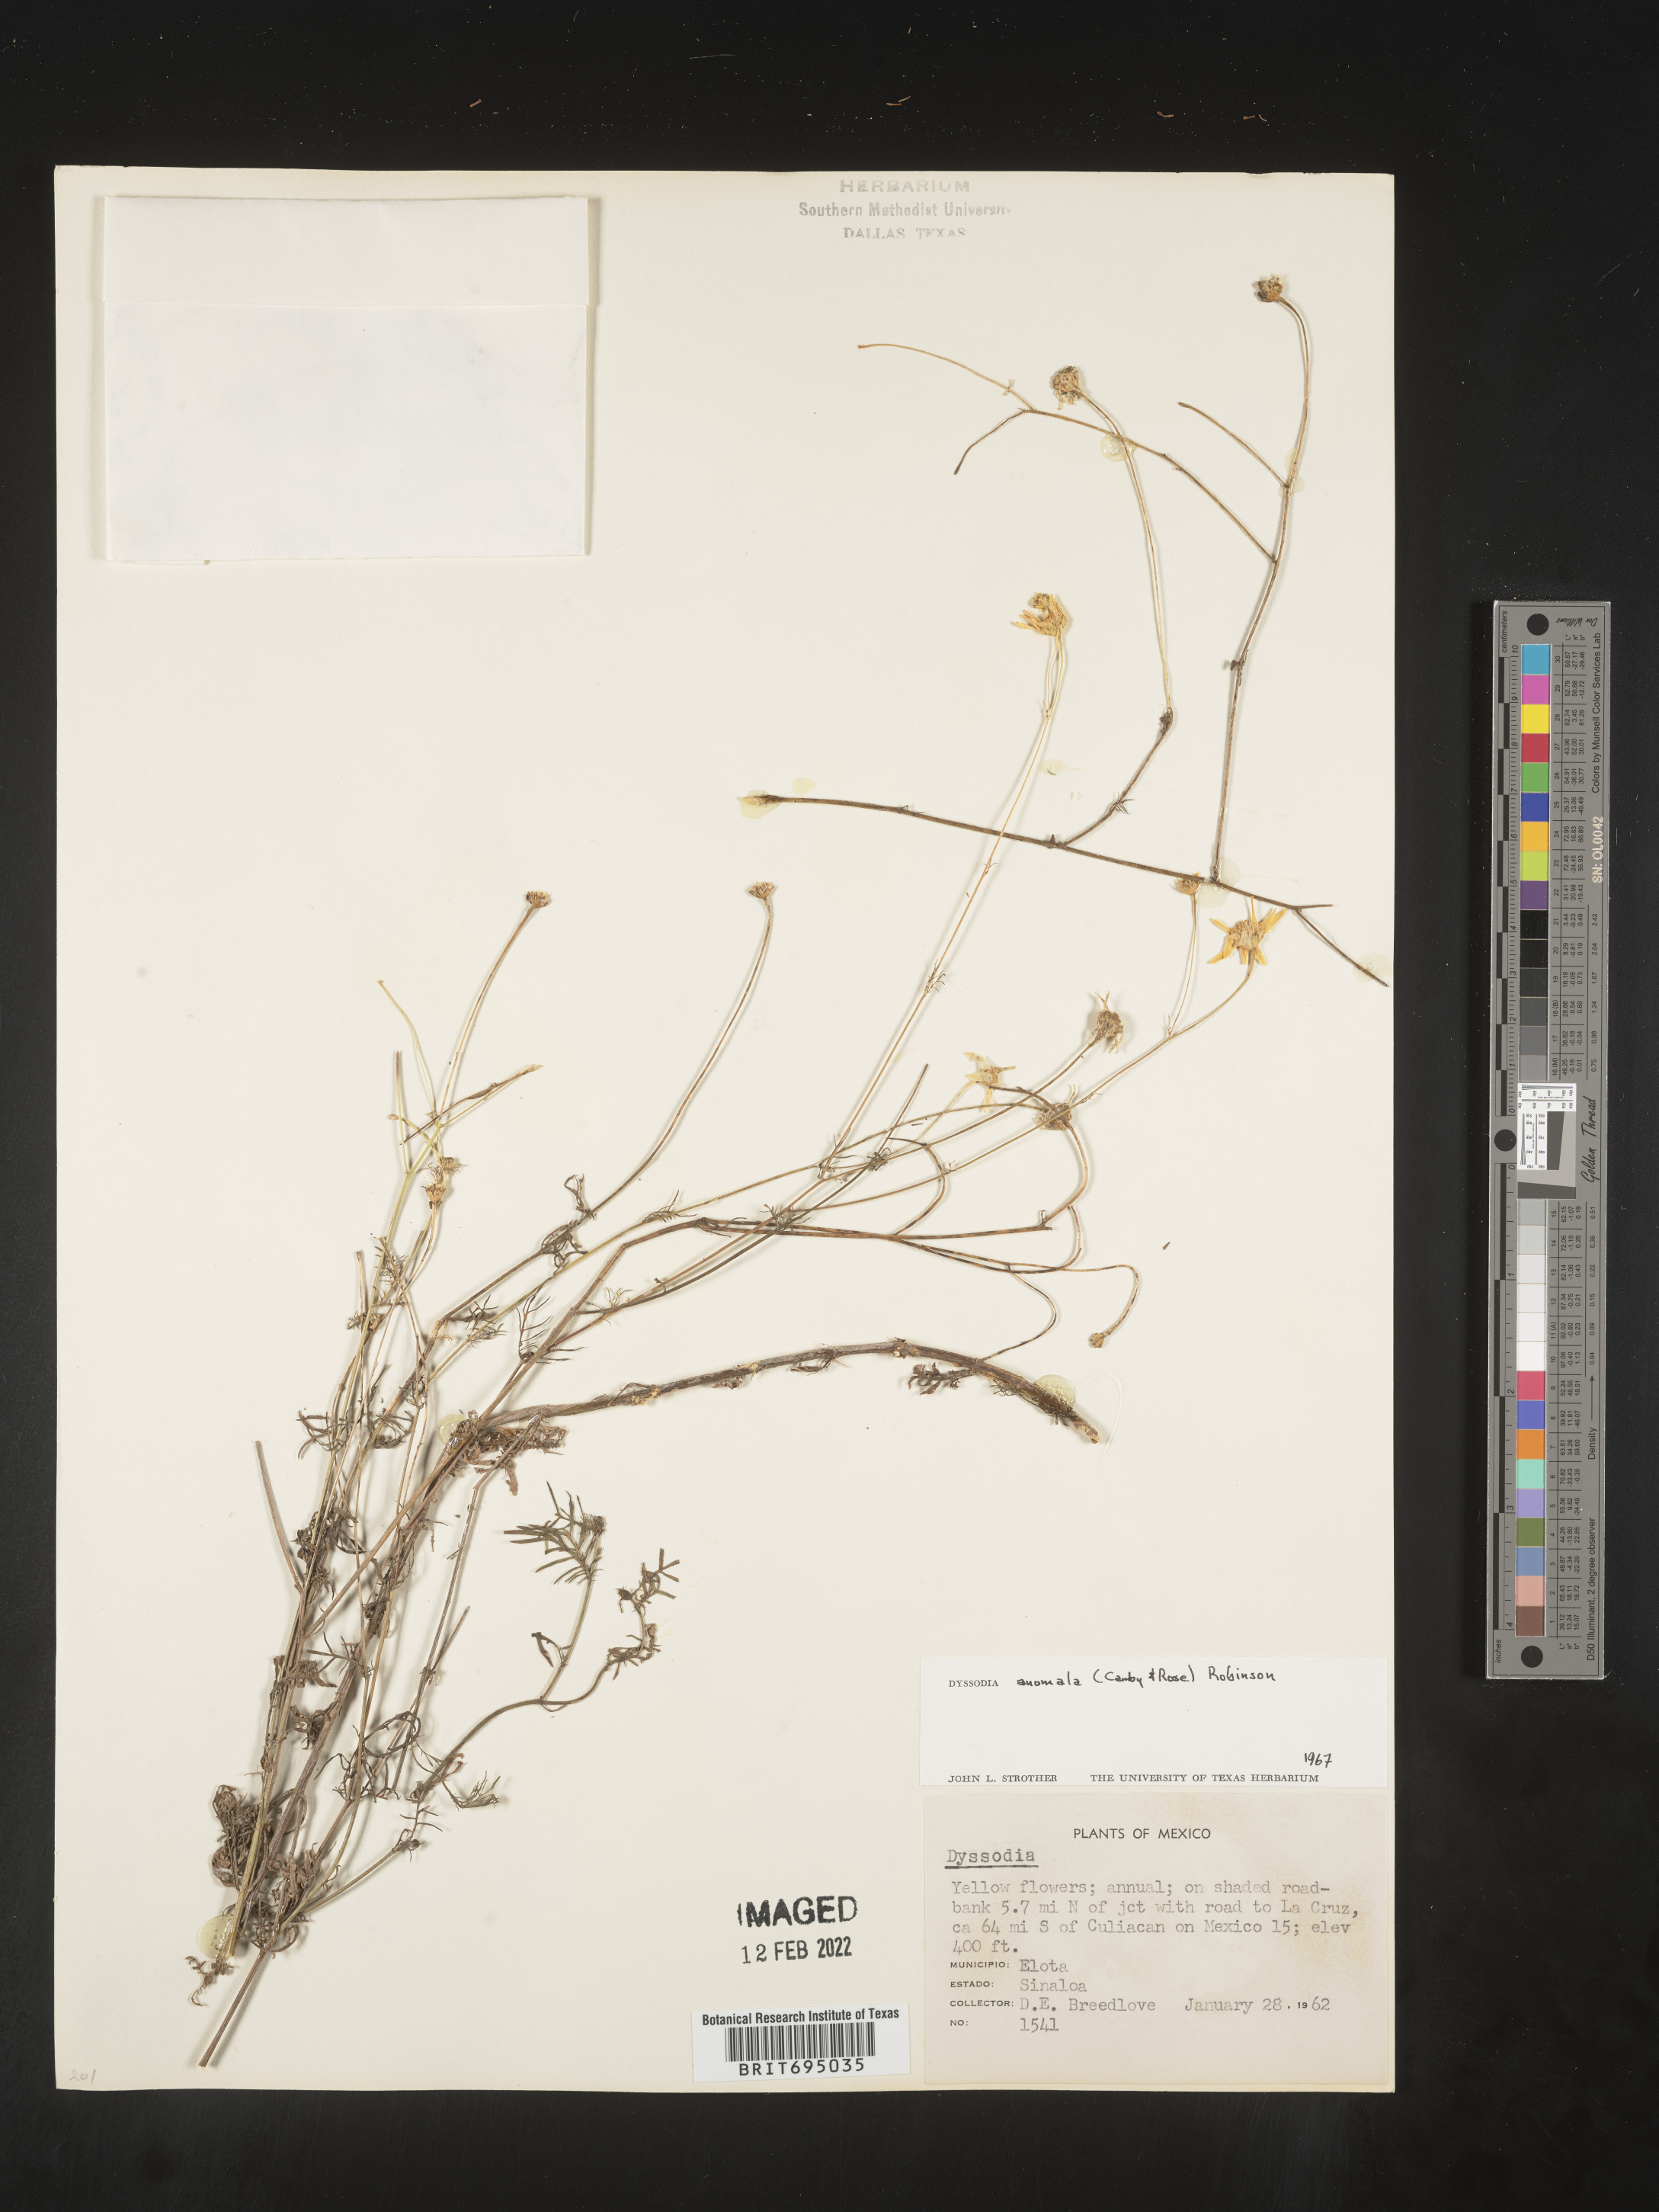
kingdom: Plantae
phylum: Tracheophyta
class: Magnoliopsida
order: Asterales
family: Asteraceae
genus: Adenophyllum
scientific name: Adenophyllum anomalum
